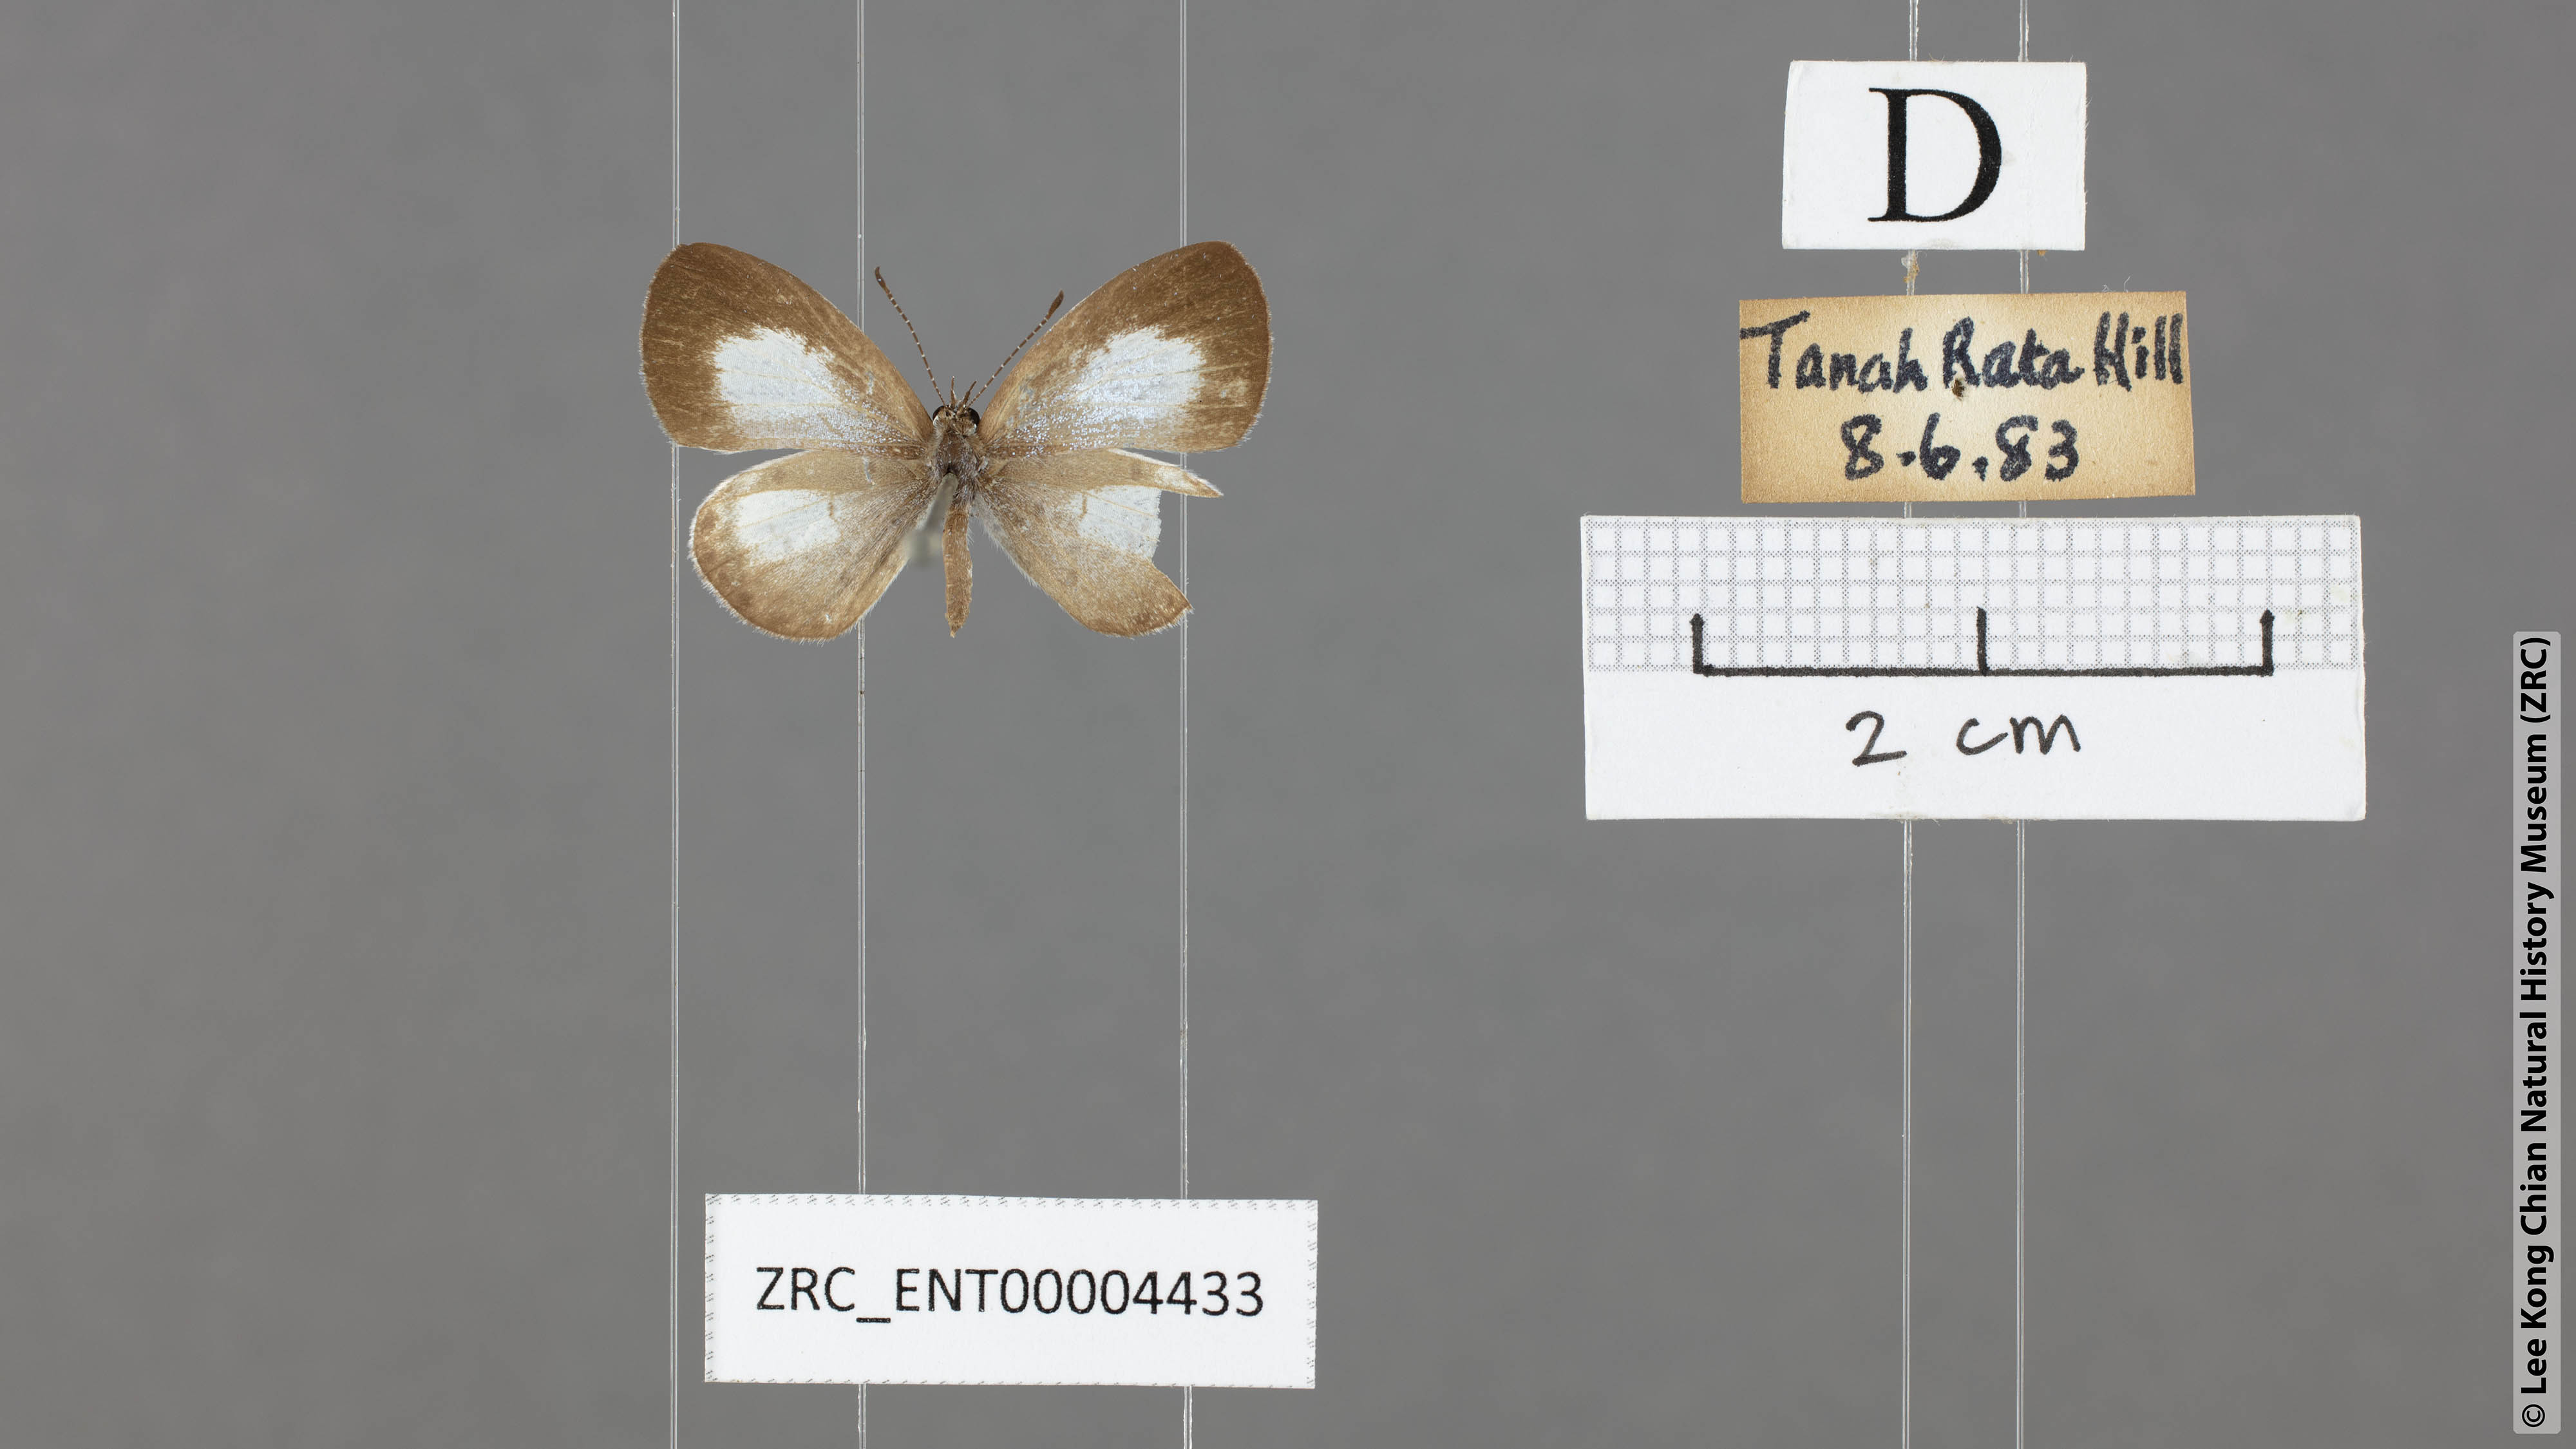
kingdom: Animalia
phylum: Arthropoda
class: Insecta
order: Lepidoptera
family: Lycaenidae
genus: Oreolyce
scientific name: Oreolyce
